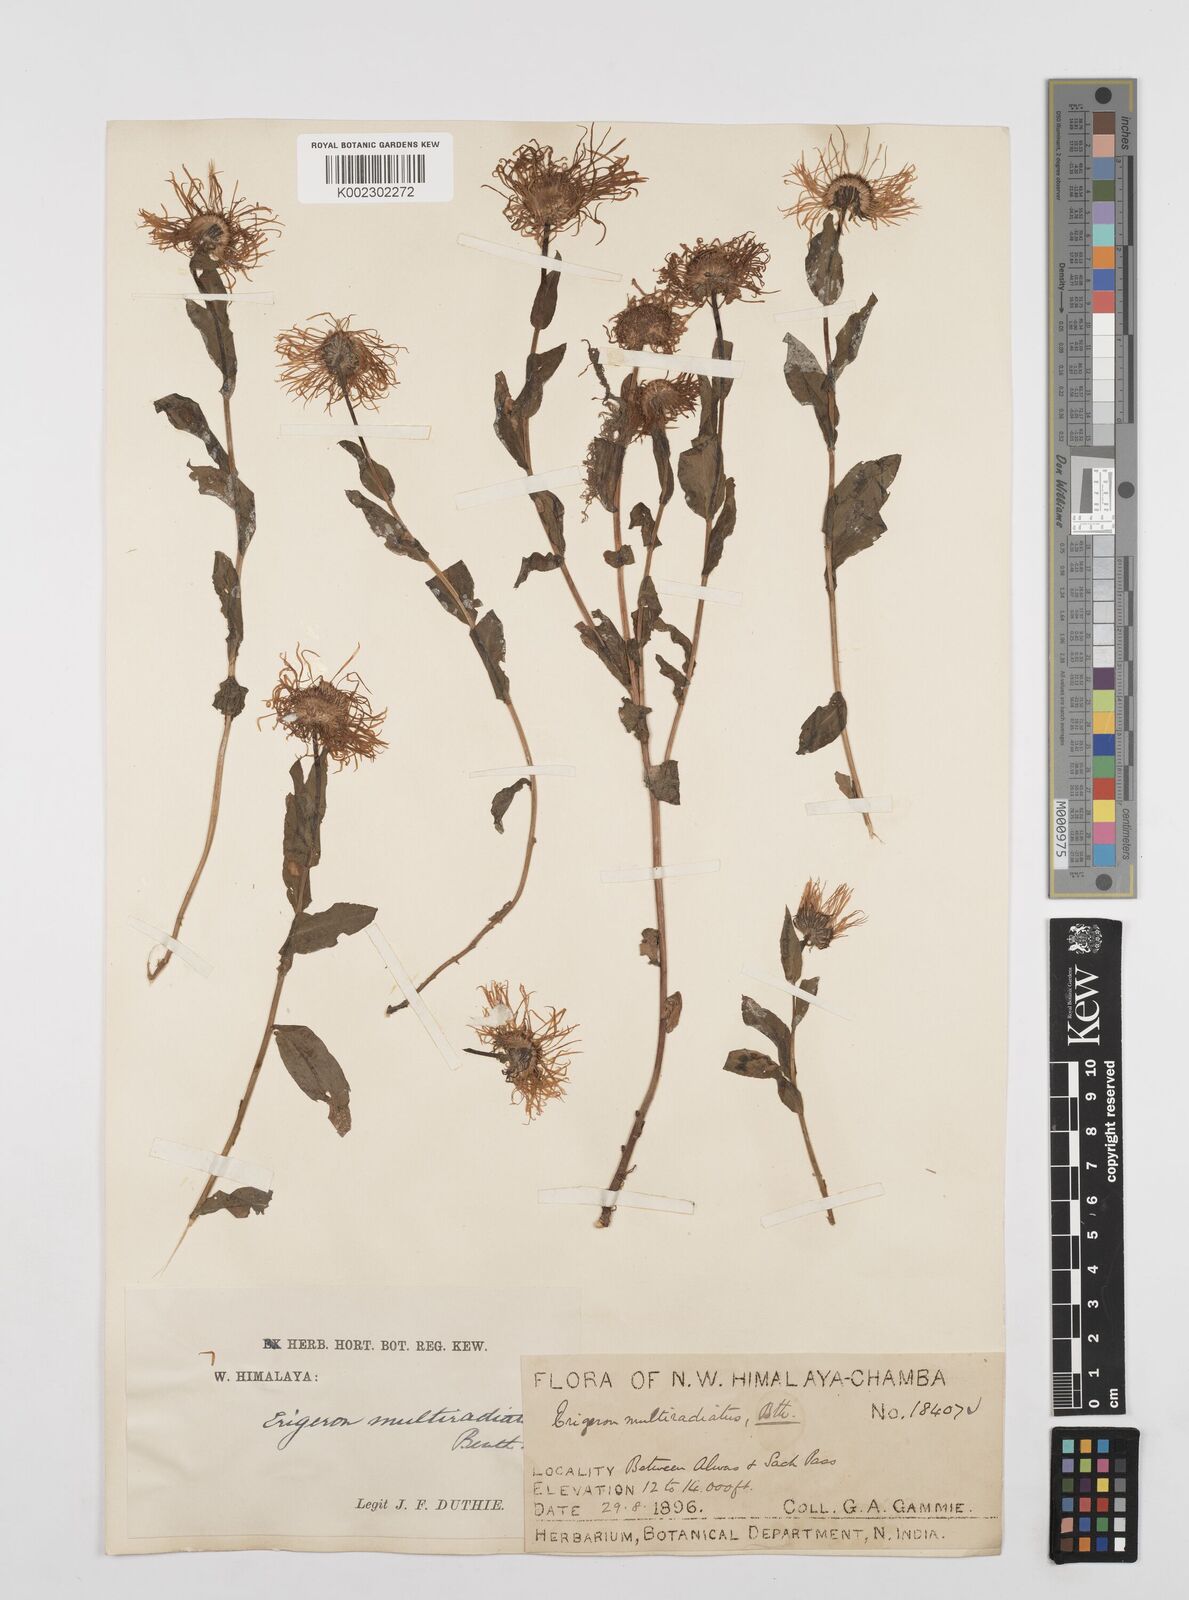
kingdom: Plantae
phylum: Tracheophyta
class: Magnoliopsida
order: Asterales
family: Asteraceae
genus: Erigeron
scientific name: Erigeron multiradiatus
